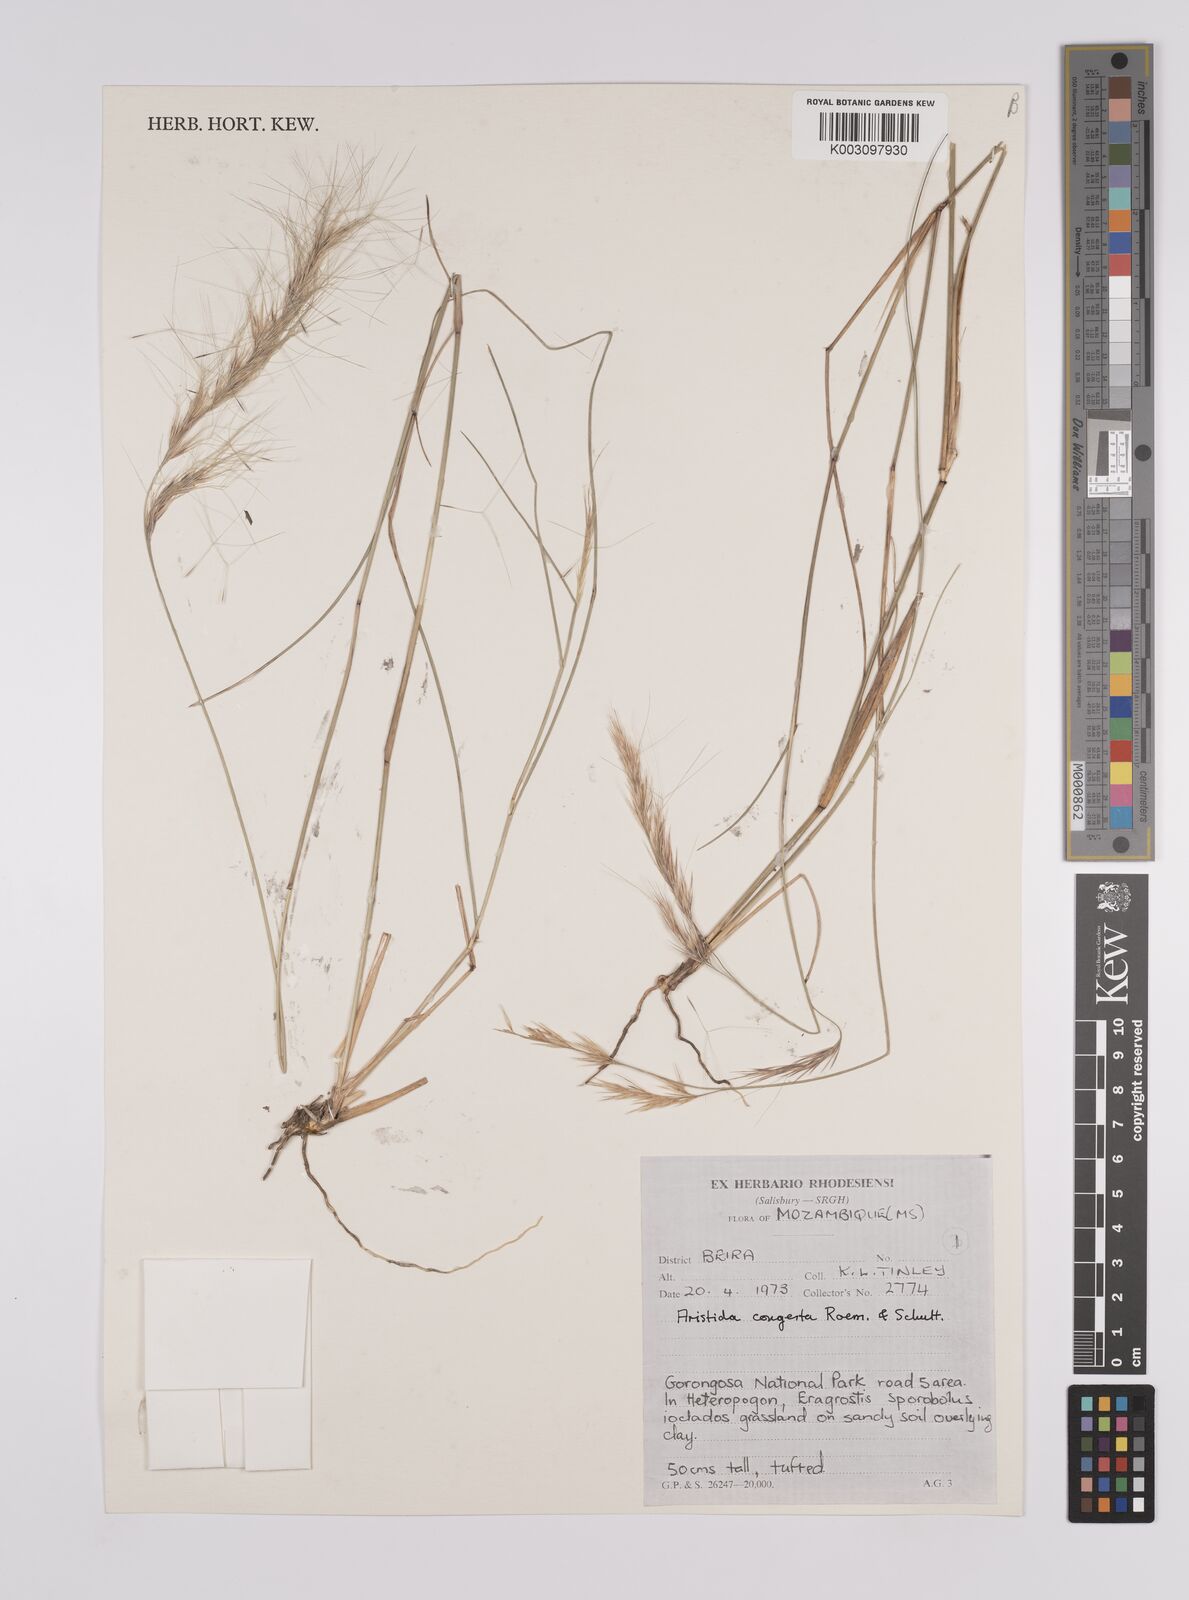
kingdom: Plantae
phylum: Tracheophyta
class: Liliopsida
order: Poales
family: Poaceae
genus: Aristida
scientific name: Aristida congesta
